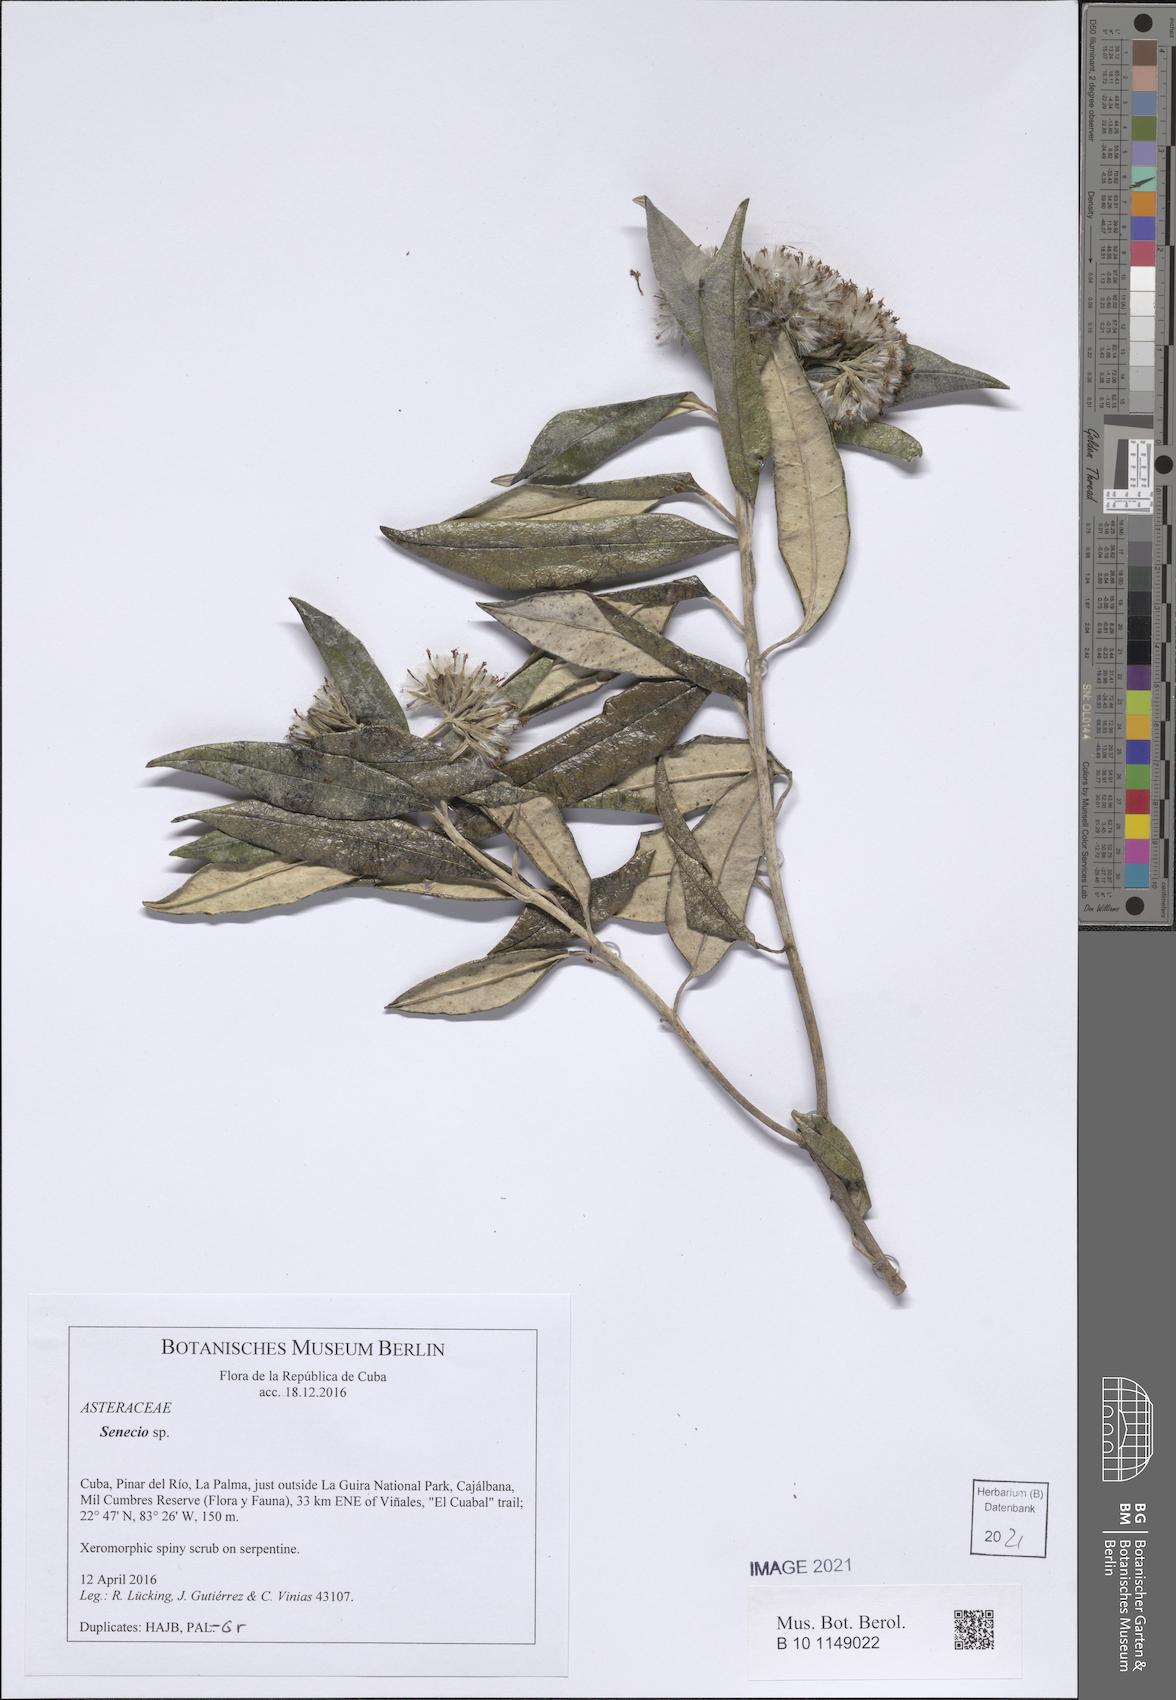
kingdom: Plantae
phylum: Tracheophyta
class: Magnoliopsida
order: Asterales
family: Asteraceae
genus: Antillanthus
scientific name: Antillanthus discolor
